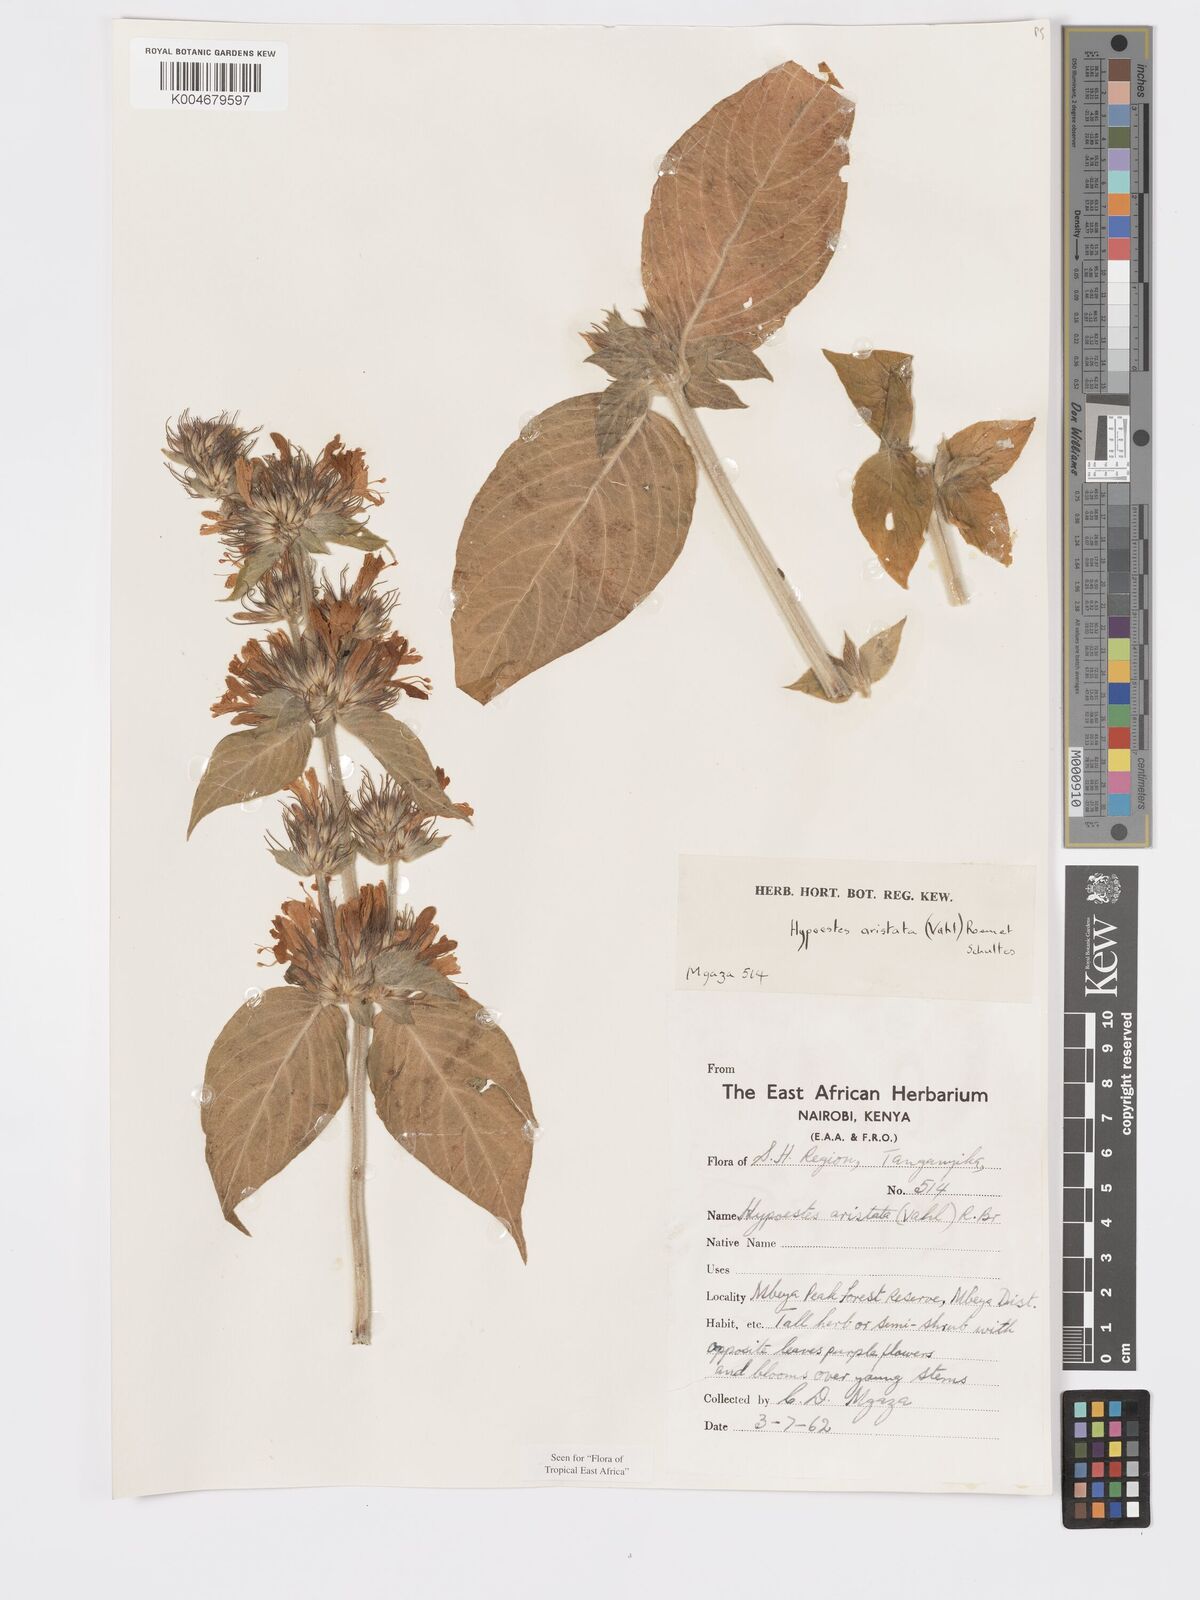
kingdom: Plantae
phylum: Tracheophyta
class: Magnoliopsida
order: Lamiales
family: Acanthaceae
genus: Hypoestes
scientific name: Hypoestes aristata
